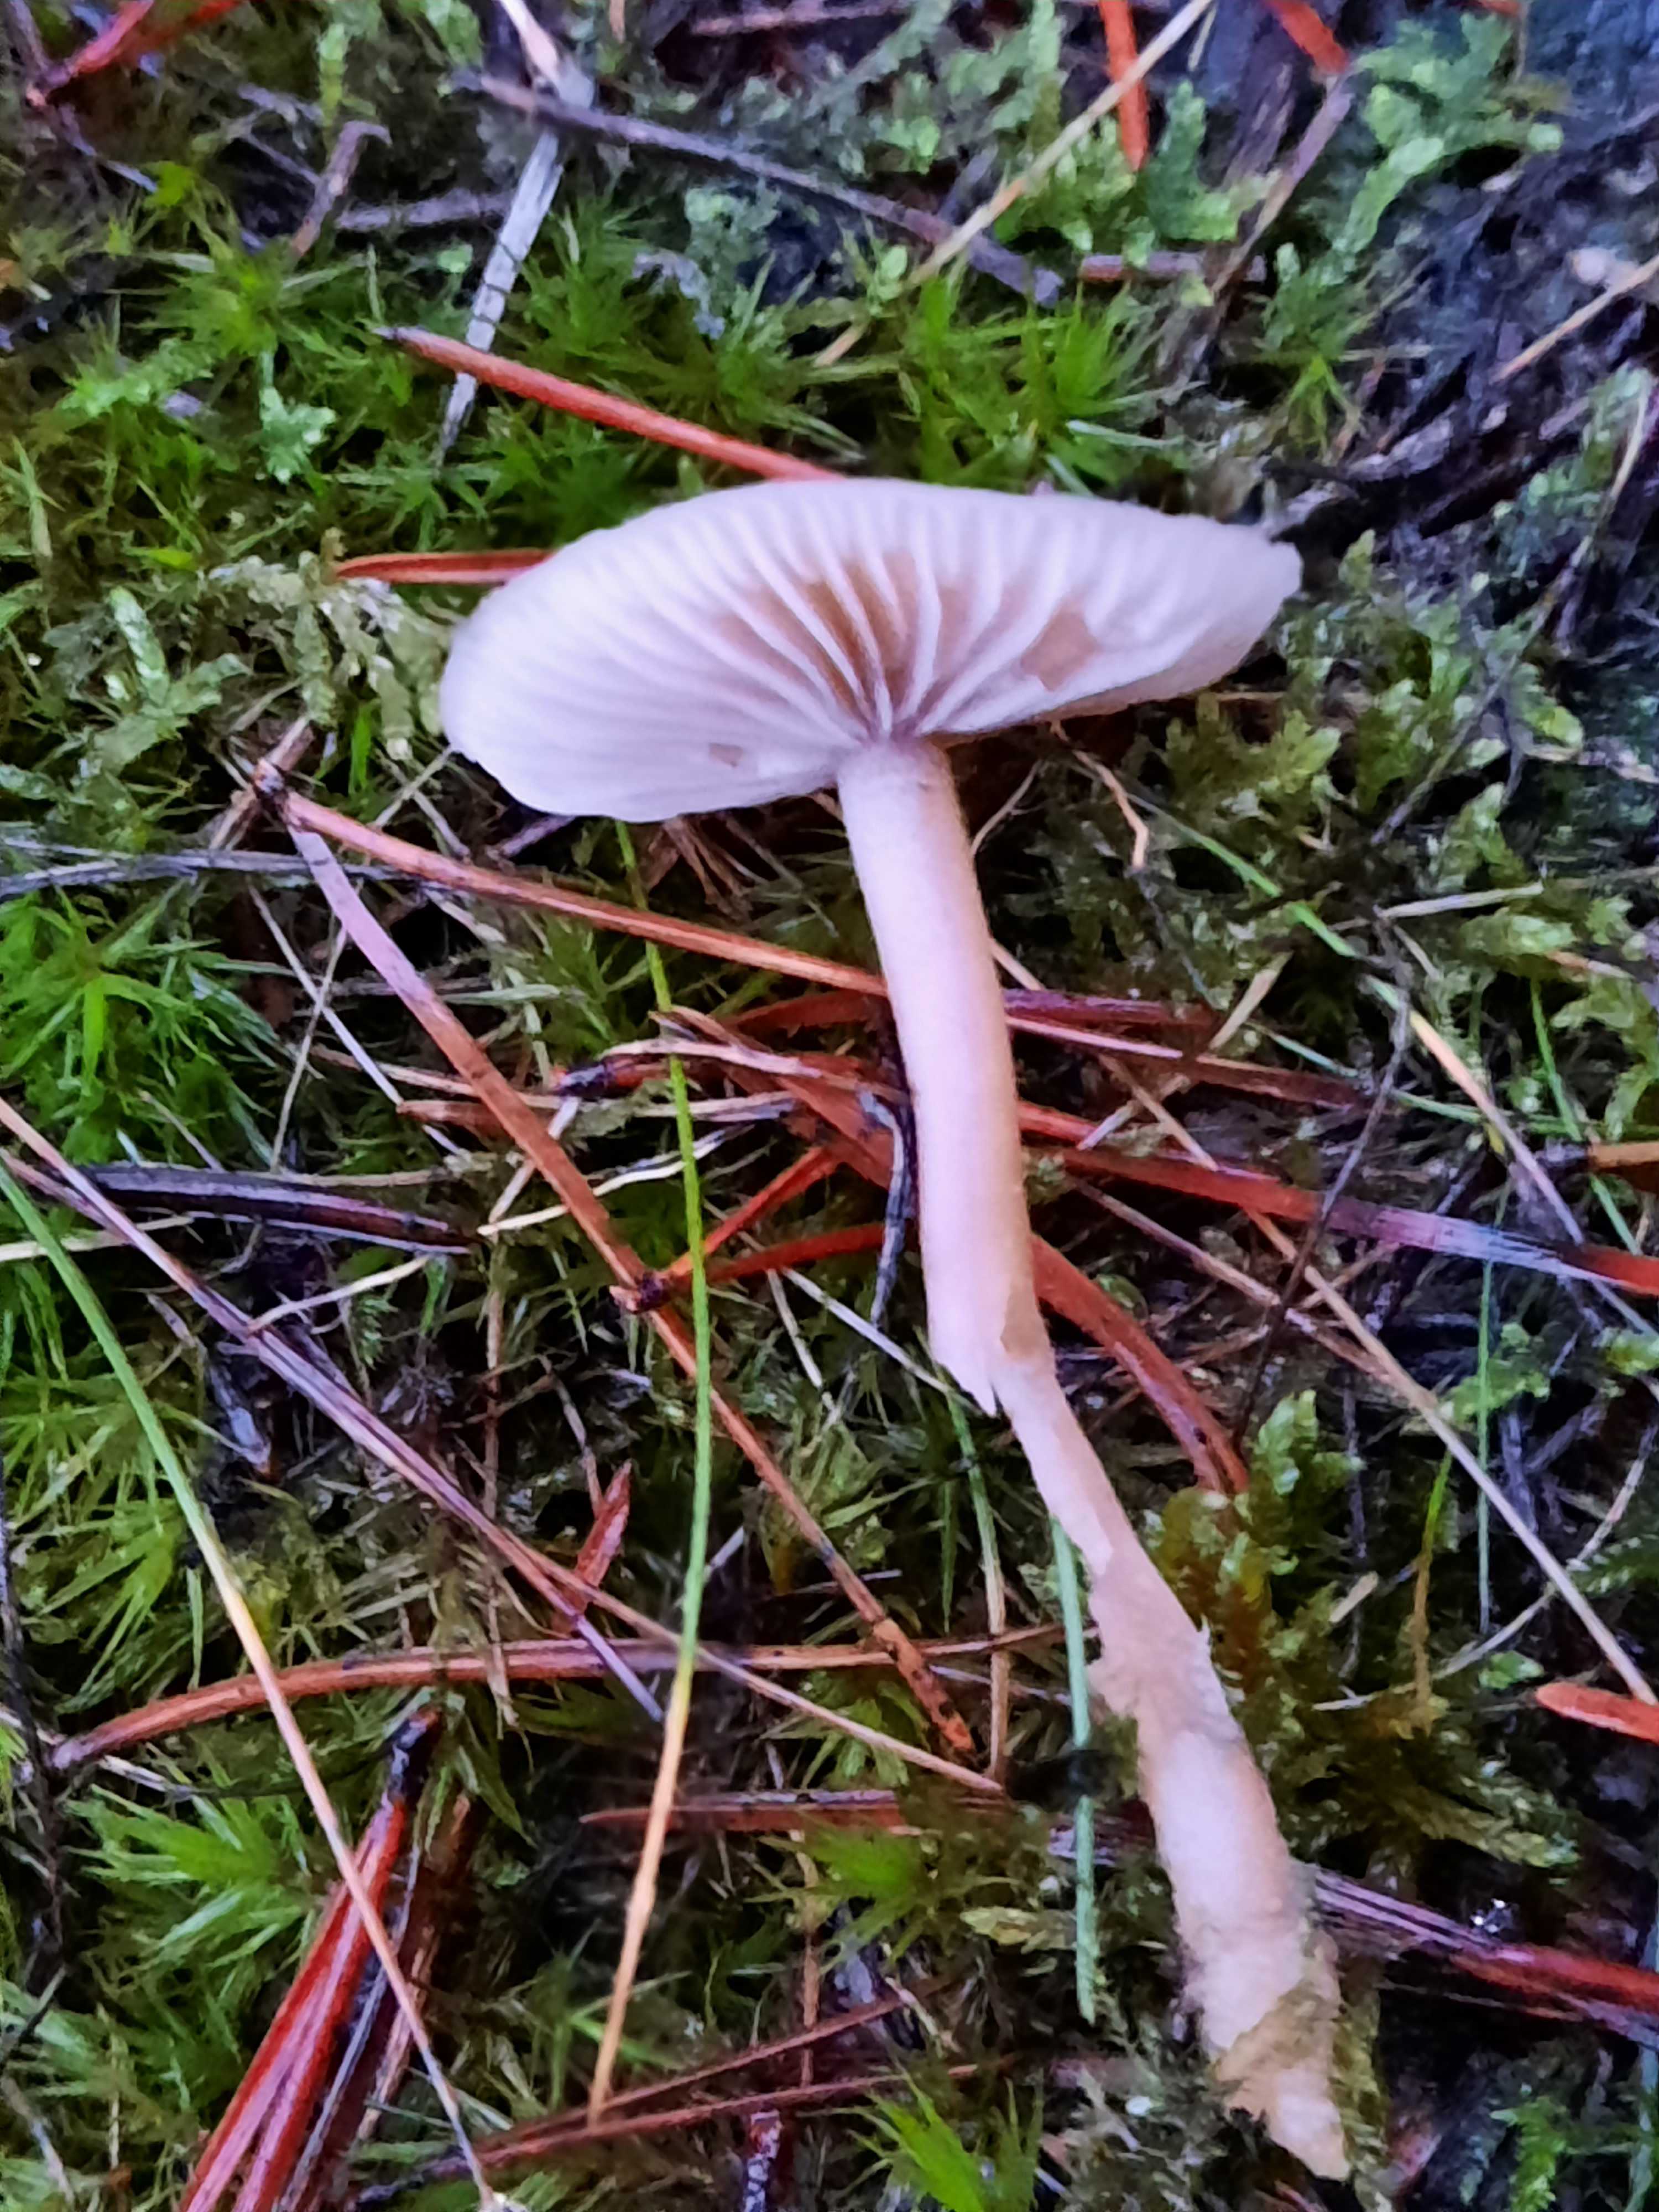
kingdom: Fungi
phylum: Basidiomycota
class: Agaricomycetes
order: Agaricales
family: Tricholomataceae
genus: Clitocybe
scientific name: Clitocybe fragrans
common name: vellugtende tragthat
